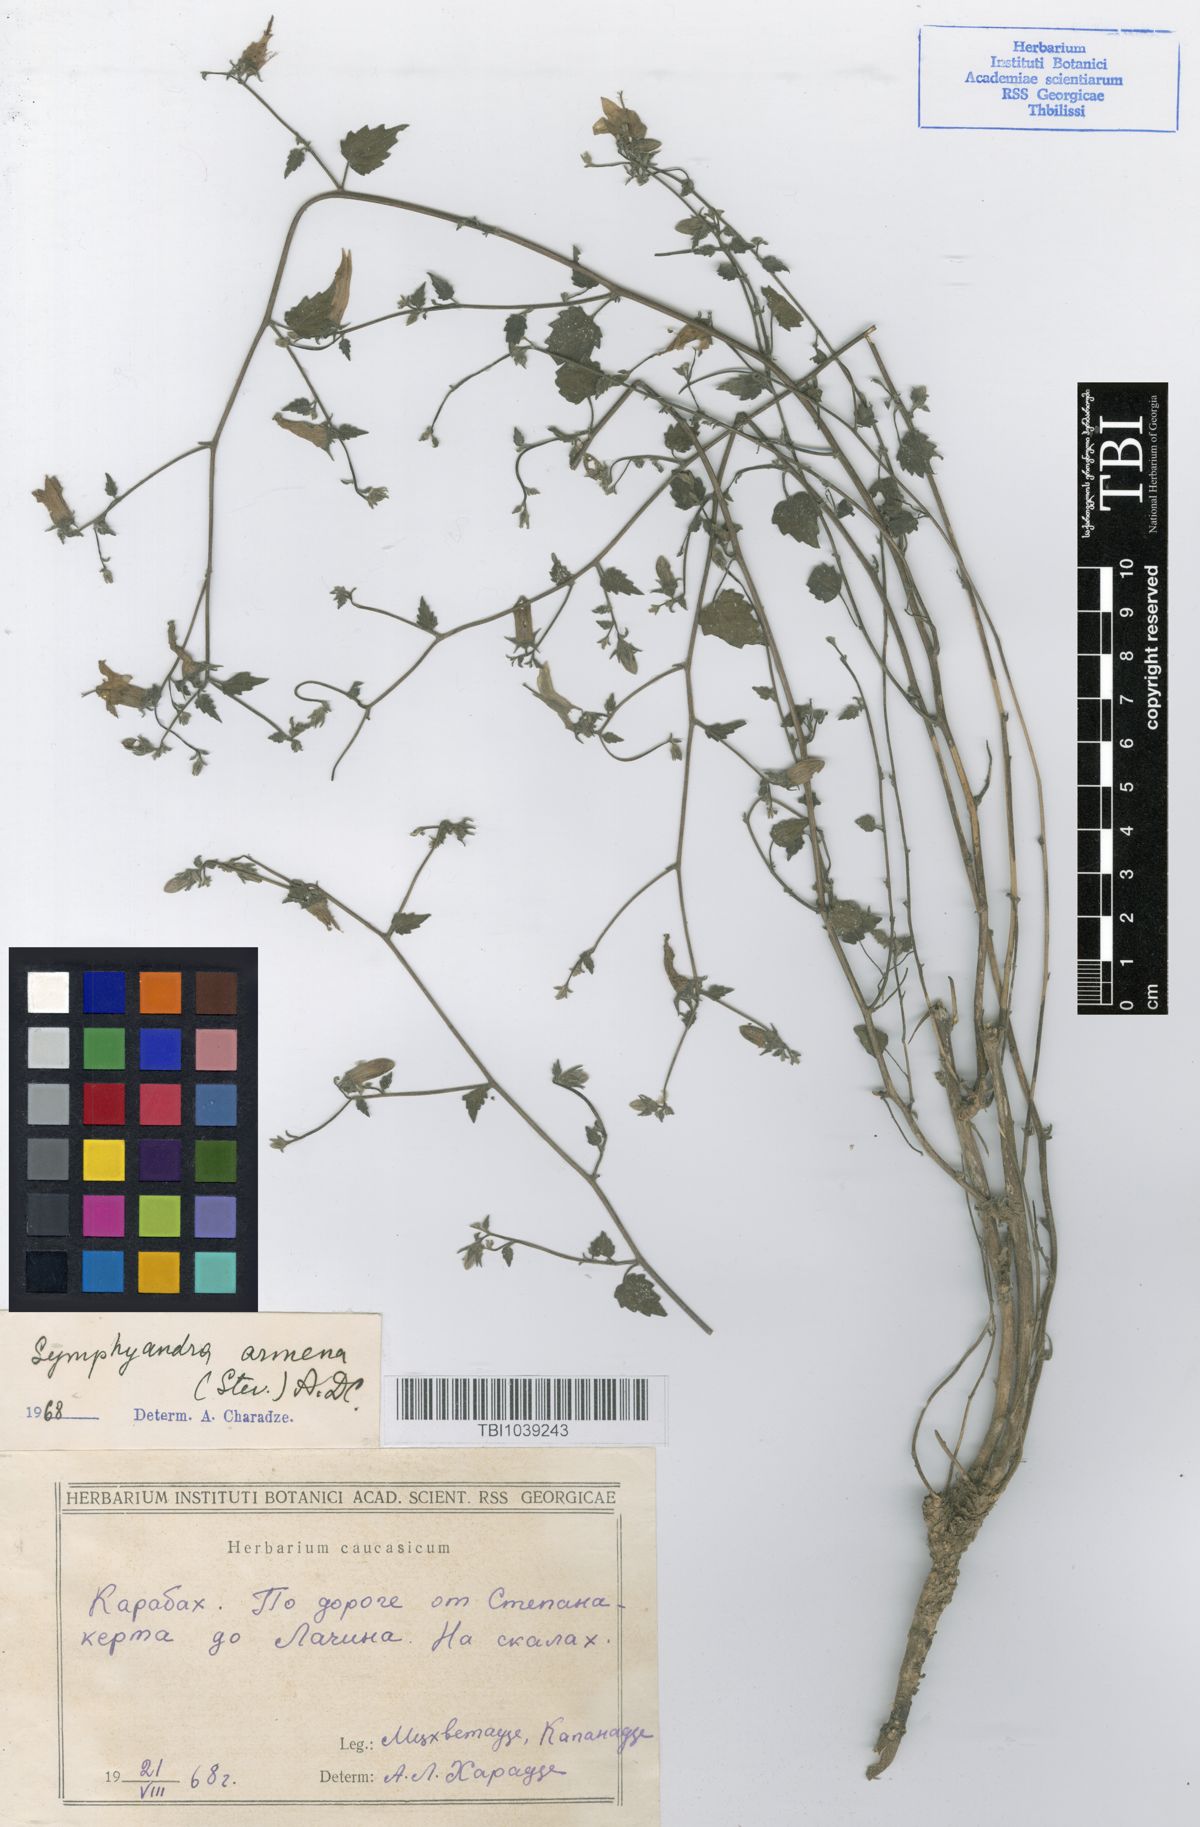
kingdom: Plantae
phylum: Tracheophyta
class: Magnoliopsida
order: Asterales
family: Campanulaceae
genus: Campanula
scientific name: Campanula armena
